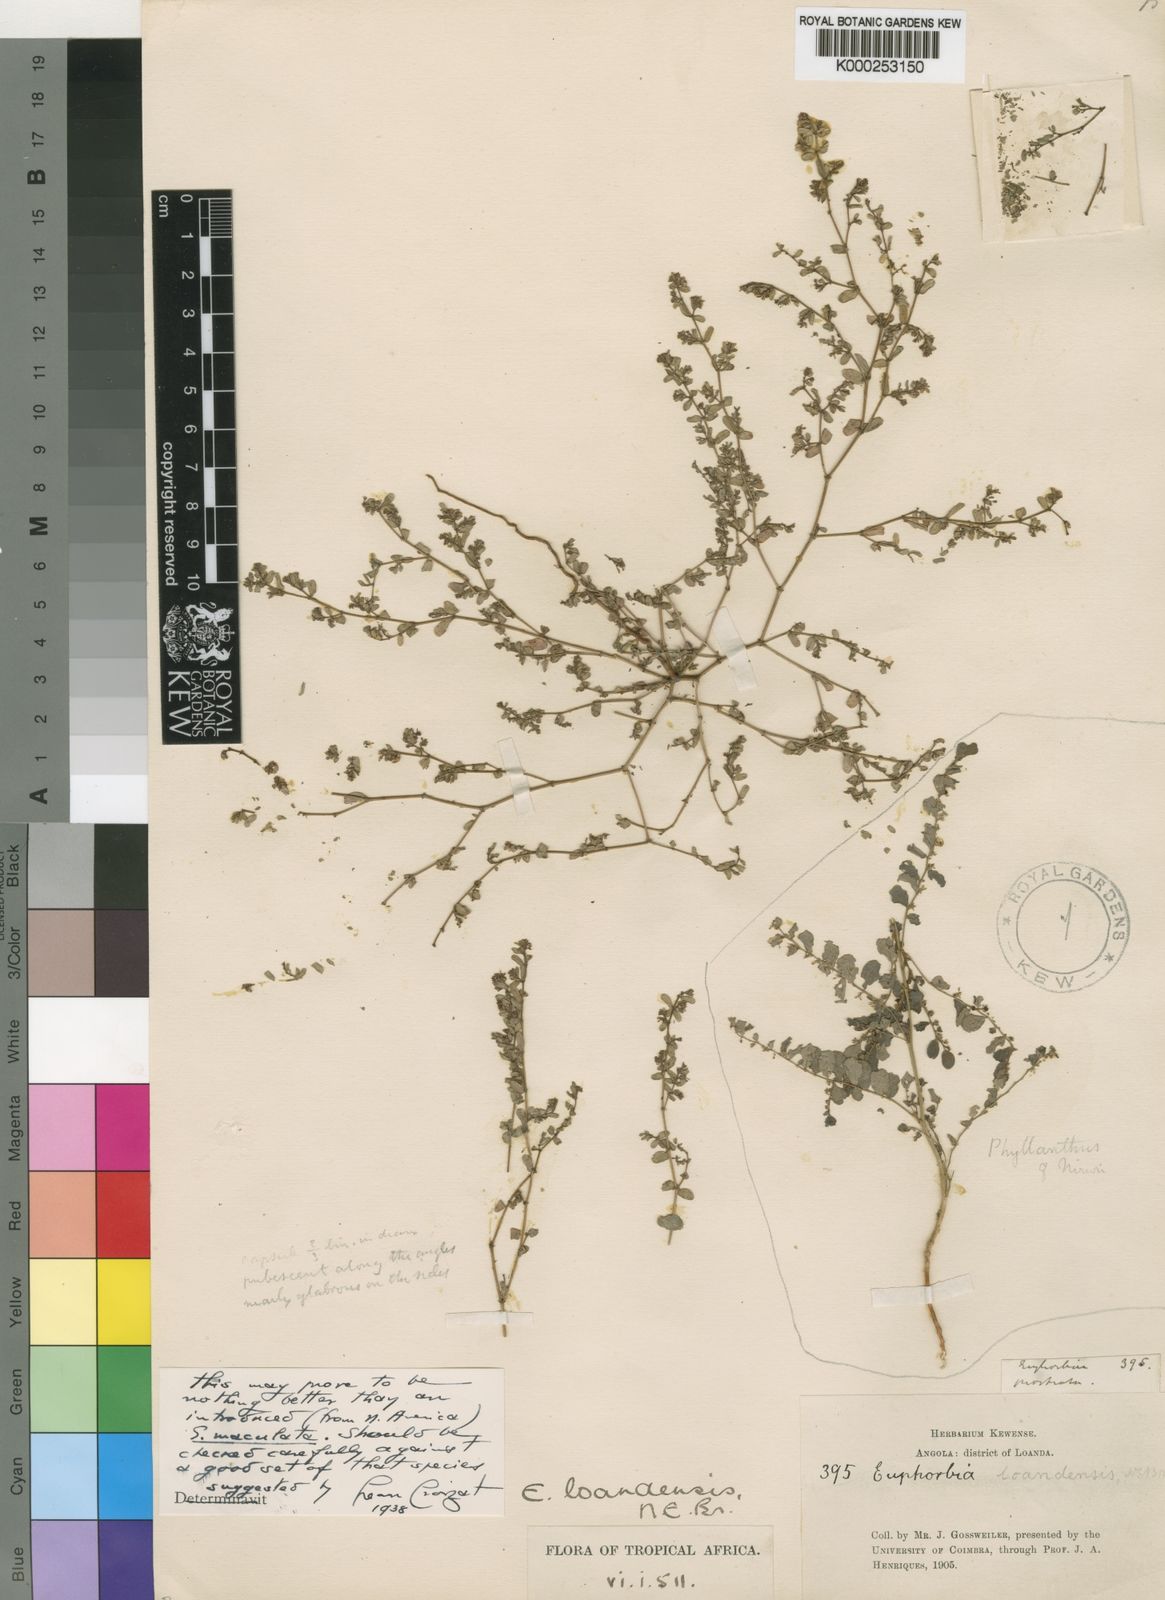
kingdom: Plantae
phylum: Tracheophyta
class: Magnoliopsida
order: Malpighiales
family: Euphorbiaceae
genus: Euphorbia
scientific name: Euphorbia loandensis
